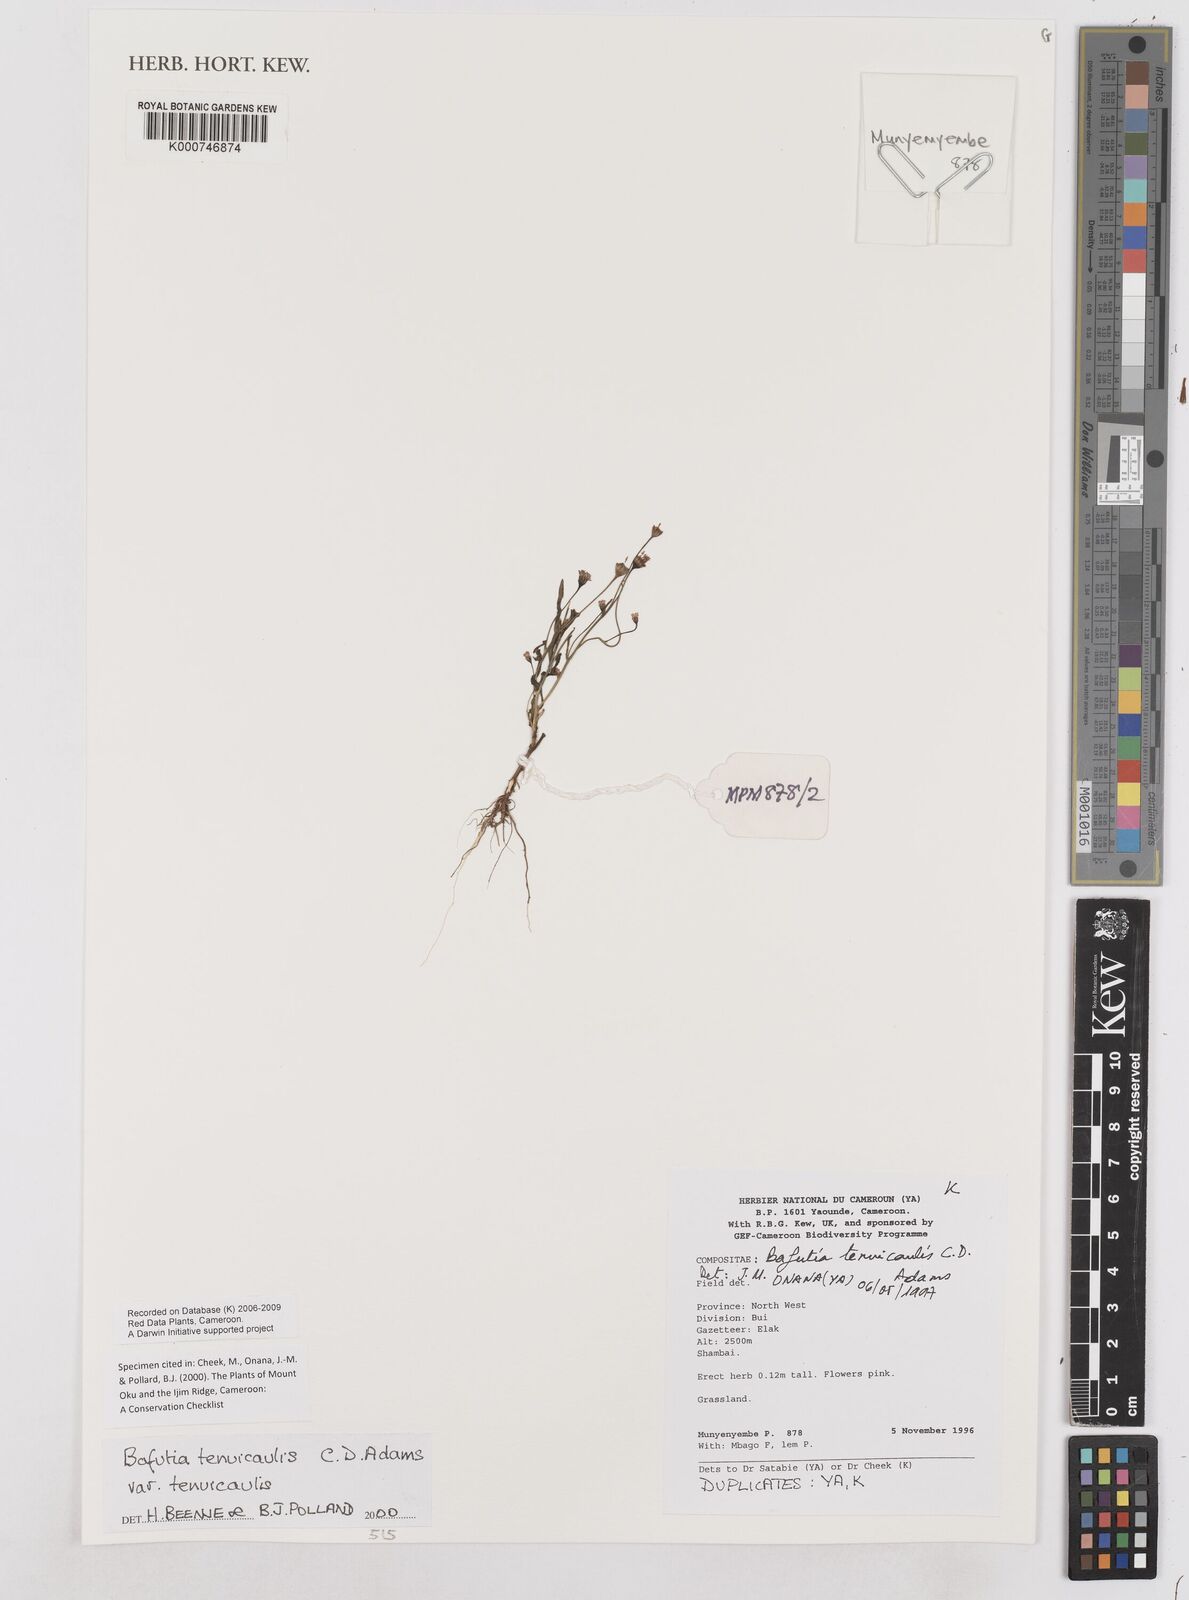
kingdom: Plantae
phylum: Tracheophyta
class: Magnoliopsida
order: Asterales
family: Asteraceae
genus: Emilia
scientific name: Emilia tenuicaulis
